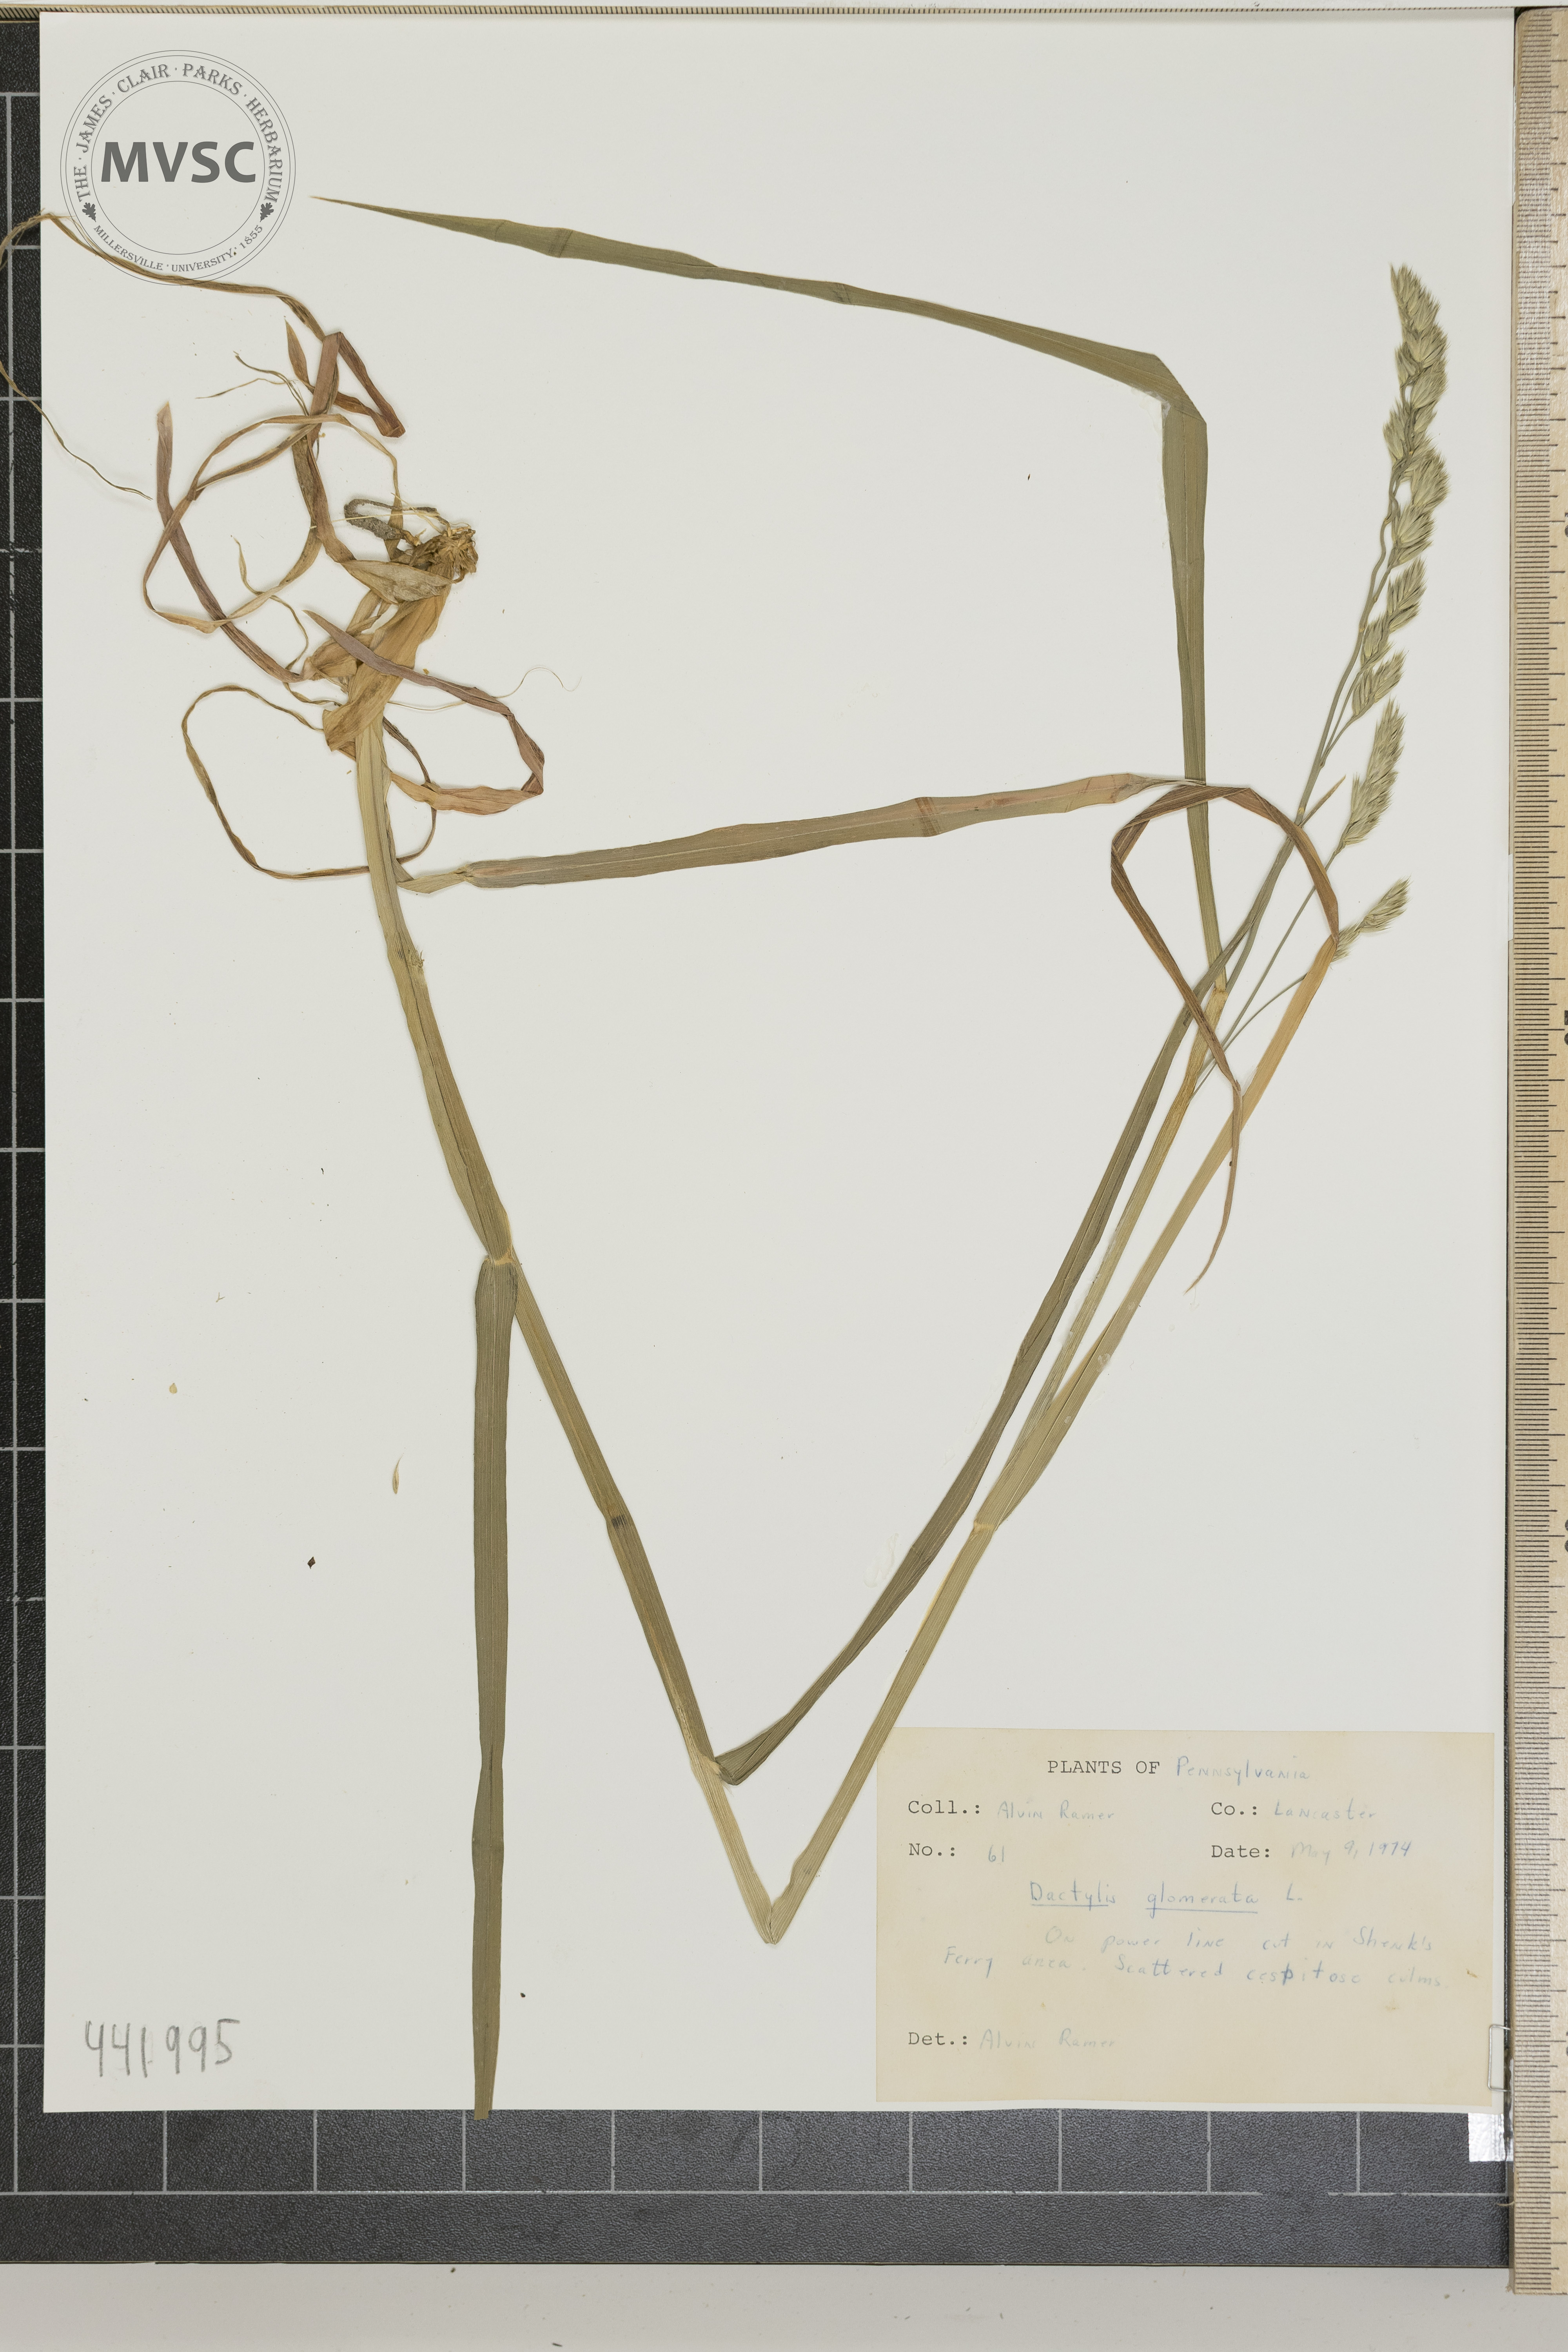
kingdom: Plantae
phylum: Tracheophyta
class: Liliopsida
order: Poales
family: Poaceae
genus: Dactylis
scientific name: Dactylis glomerata
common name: Orchardgrass
